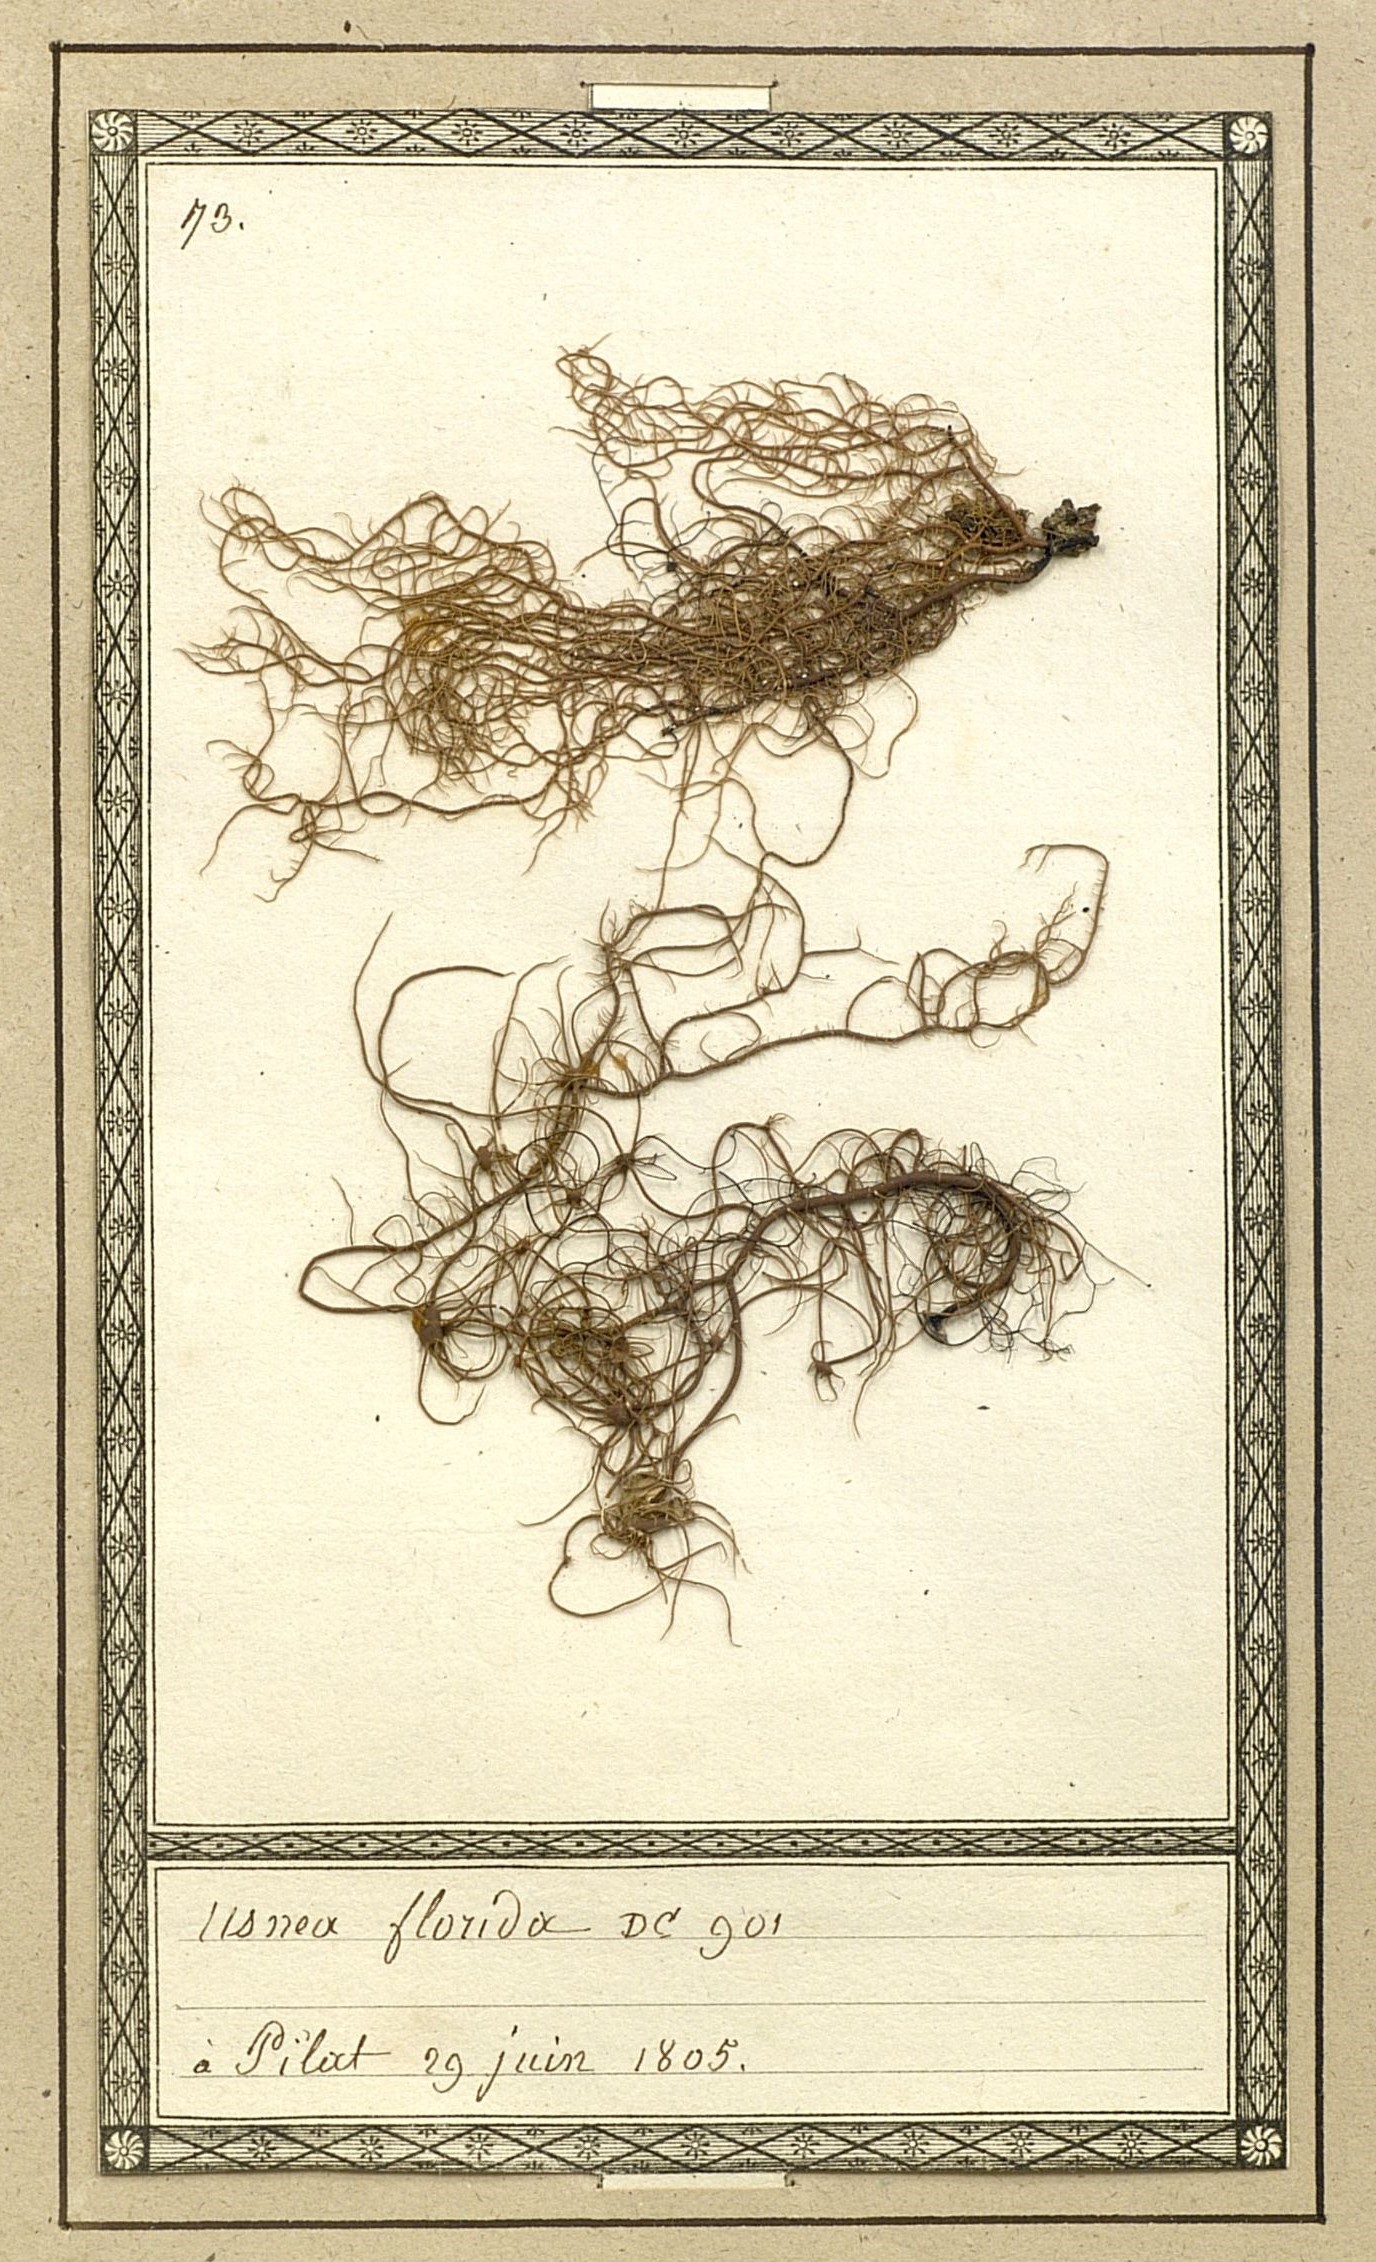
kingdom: Fungi
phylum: Ascomycota
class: Lecanoromycetes
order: Lecanorales
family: Parmeliaceae
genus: Usnea
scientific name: Usnea florida
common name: Witches' whiskers lichen
